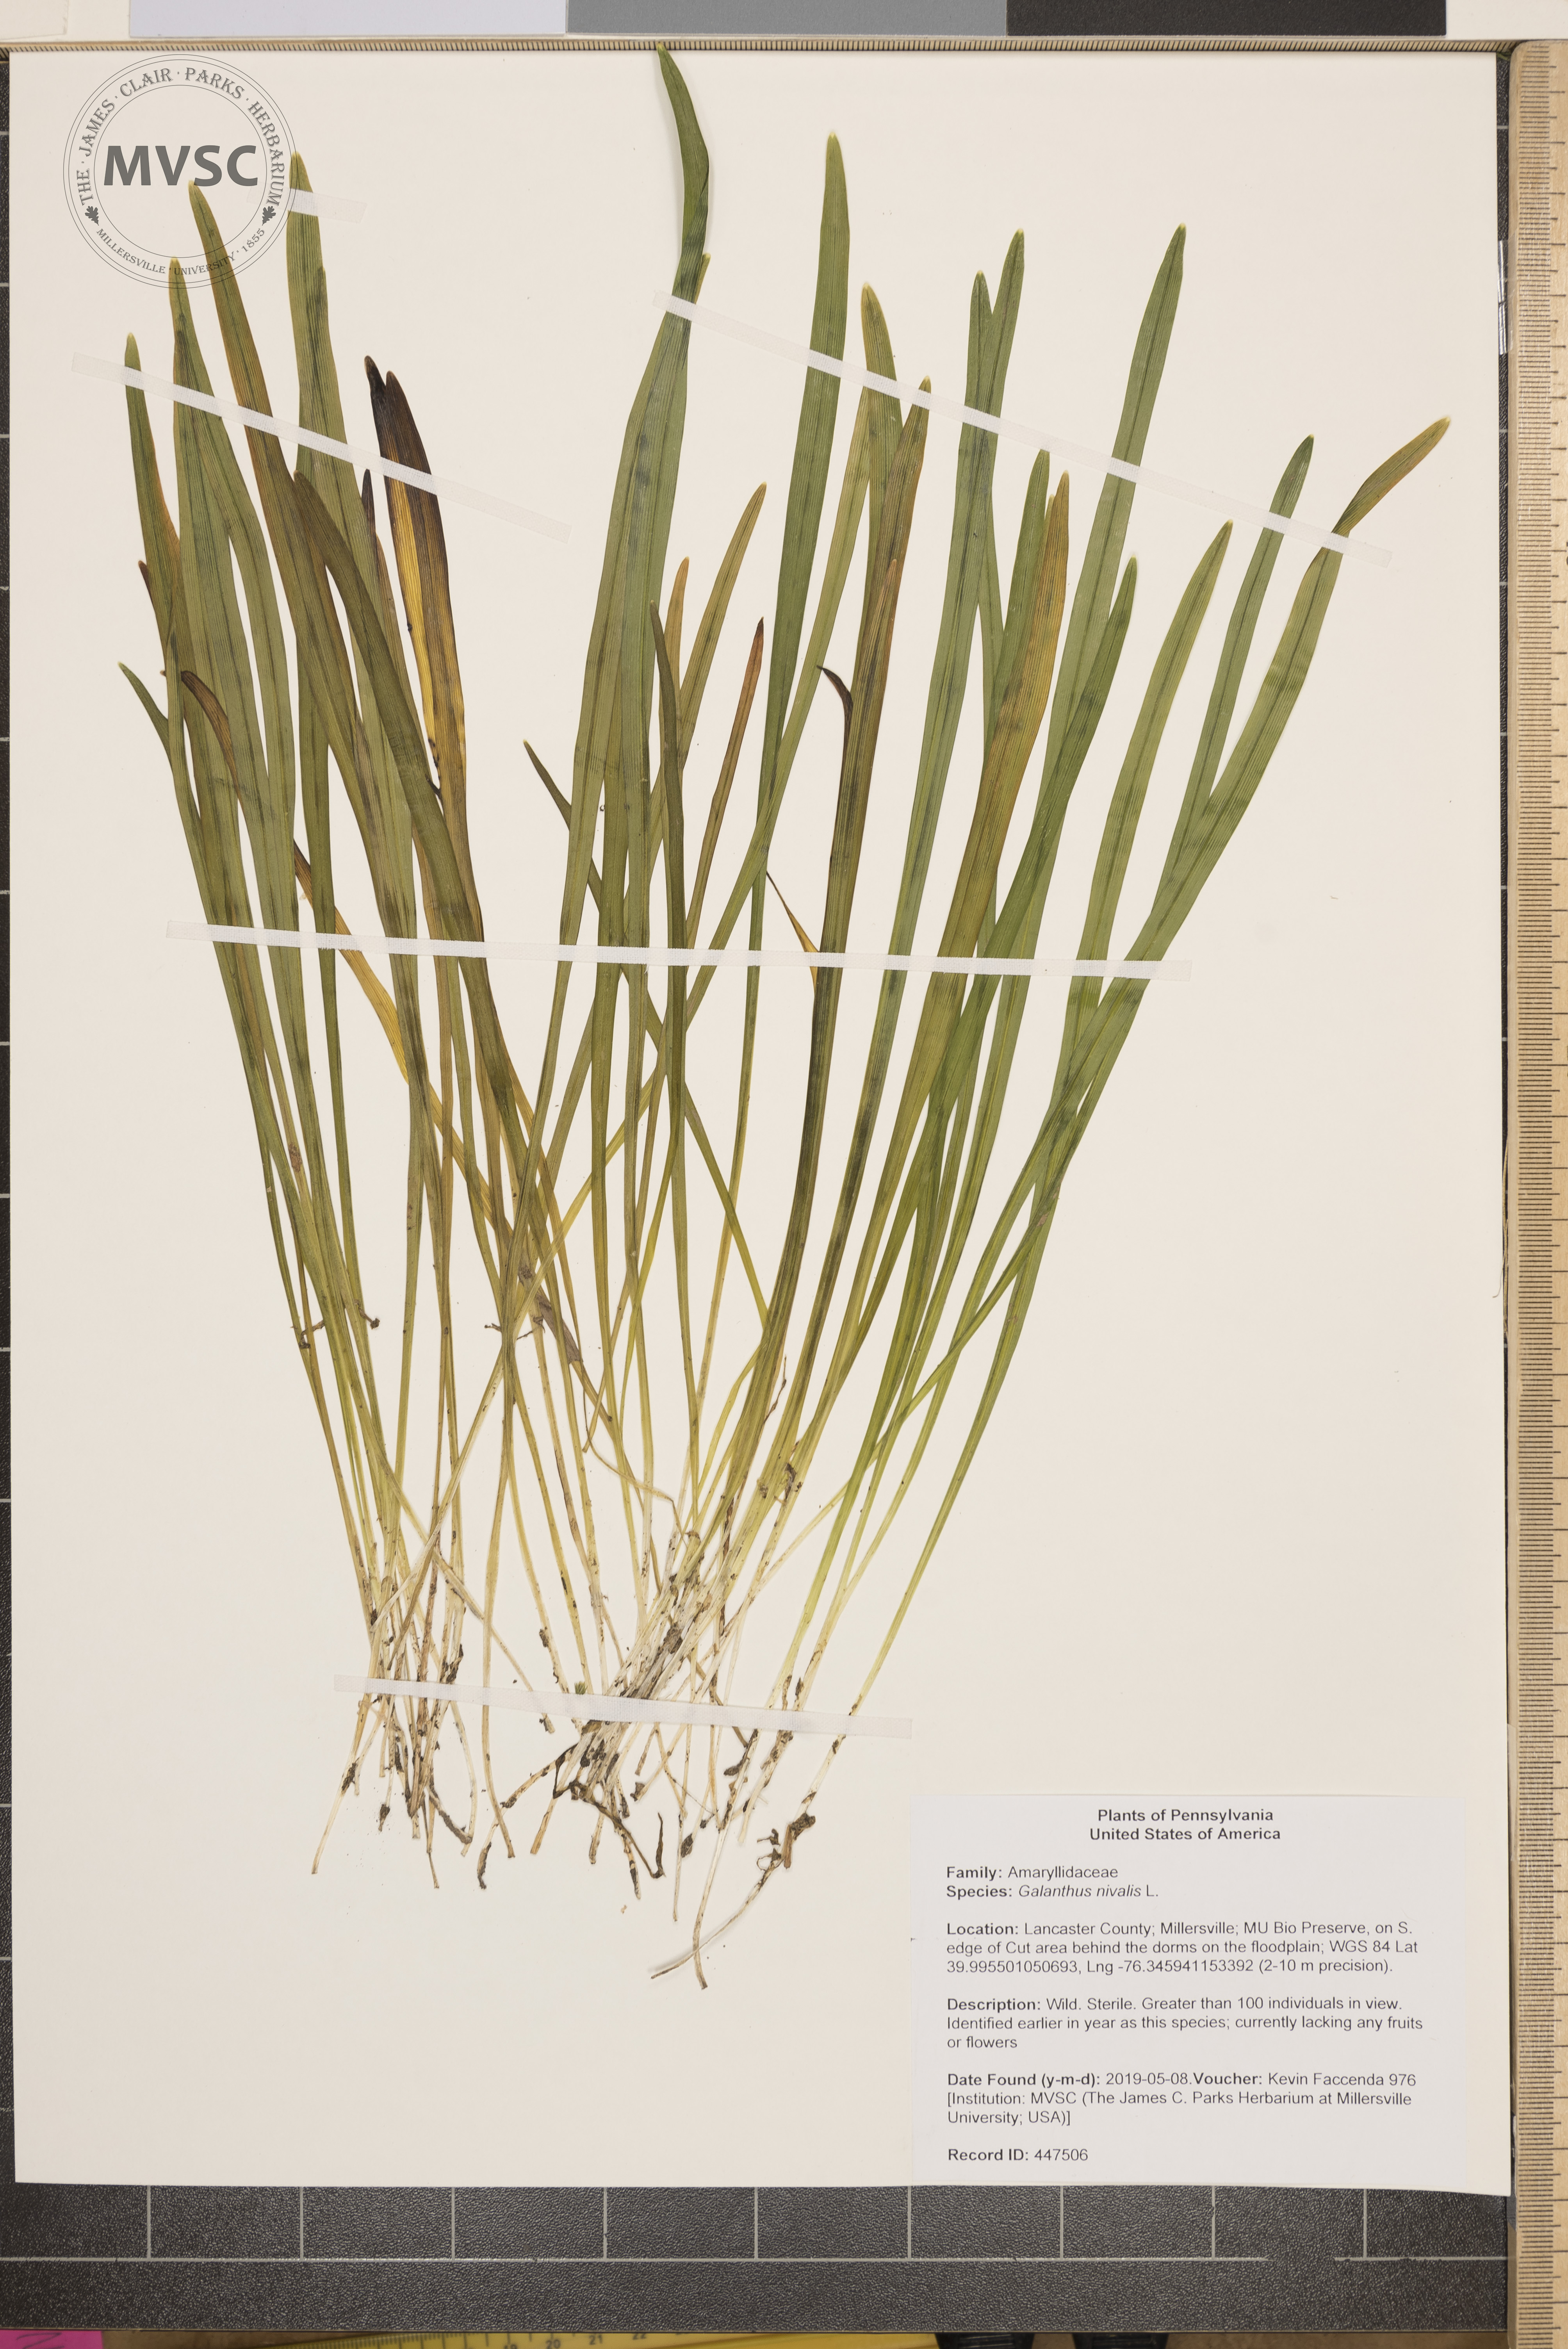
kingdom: Plantae
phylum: Tracheophyta
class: Liliopsida
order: Asparagales
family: Amaryllidaceae
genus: Galanthus
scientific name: Galanthus nivalis
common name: Snowdrop
